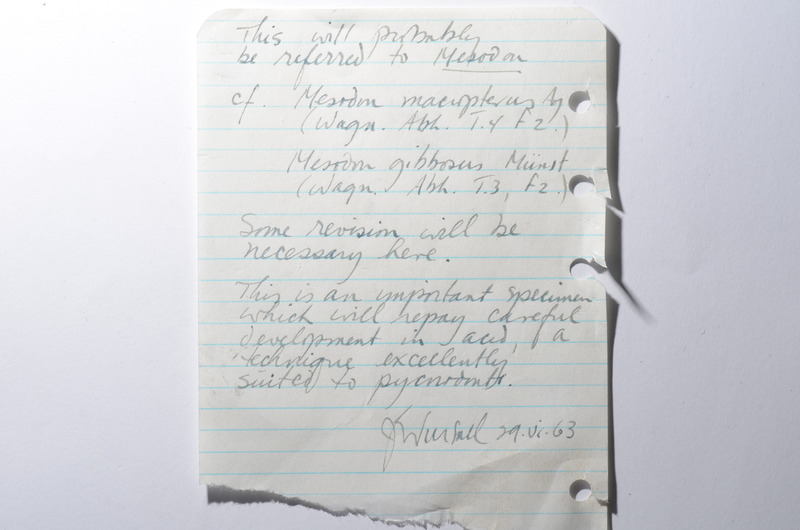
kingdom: Animalia
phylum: Chordata
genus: Apomesodon
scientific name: Apomesodon gibbosus
